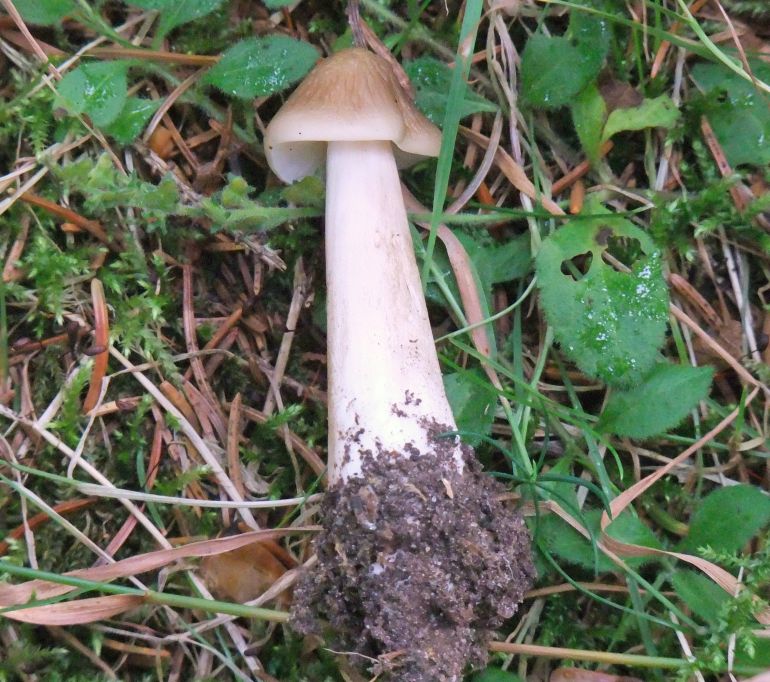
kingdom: Fungi
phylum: Basidiomycota
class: Agaricomycetes
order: Agaricales
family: Physalacriaceae
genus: Hymenopellis
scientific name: Hymenopellis radicata
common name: almindelig pælerodshat
